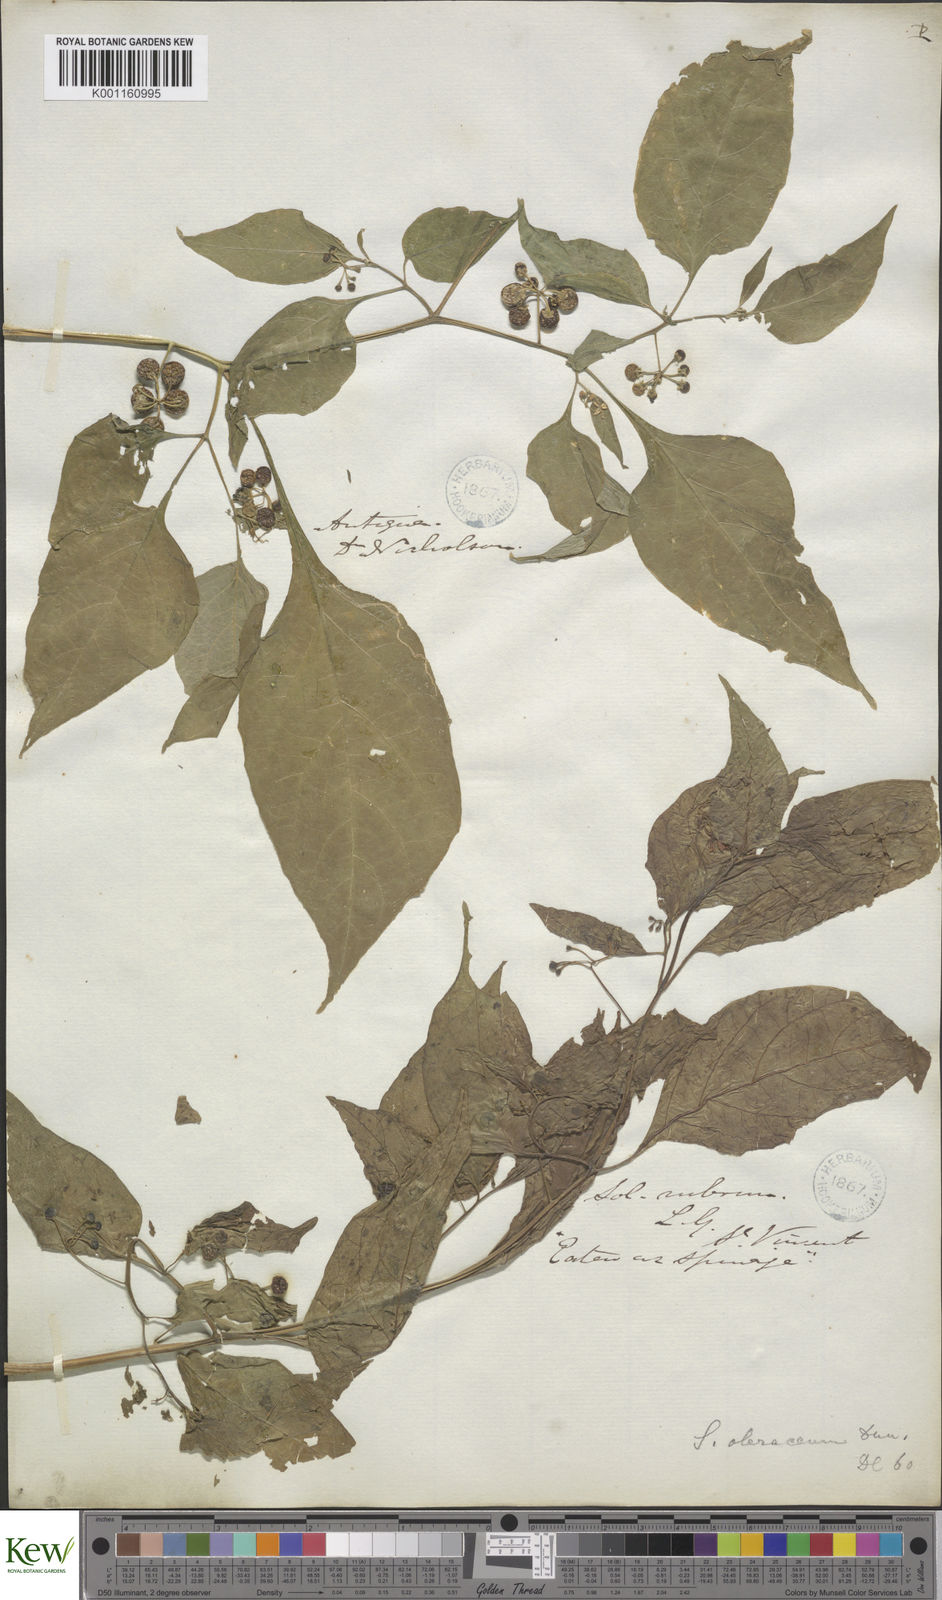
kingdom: Plantae
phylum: Tracheophyta
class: Magnoliopsida
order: Solanales
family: Solanaceae
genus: Solanum
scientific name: Solanum americanum
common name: American black nightshade
